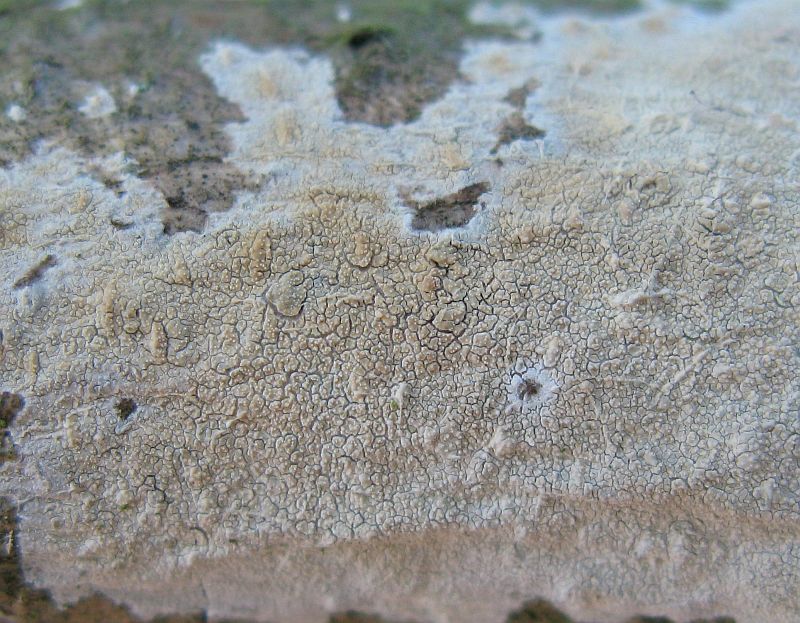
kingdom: Fungi
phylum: Basidiomycota
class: Agaricomycetes
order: Corticiales
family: Corticiaceae
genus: Lyomyces
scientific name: Lyomyces crustosus
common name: vortet hyldehinde
